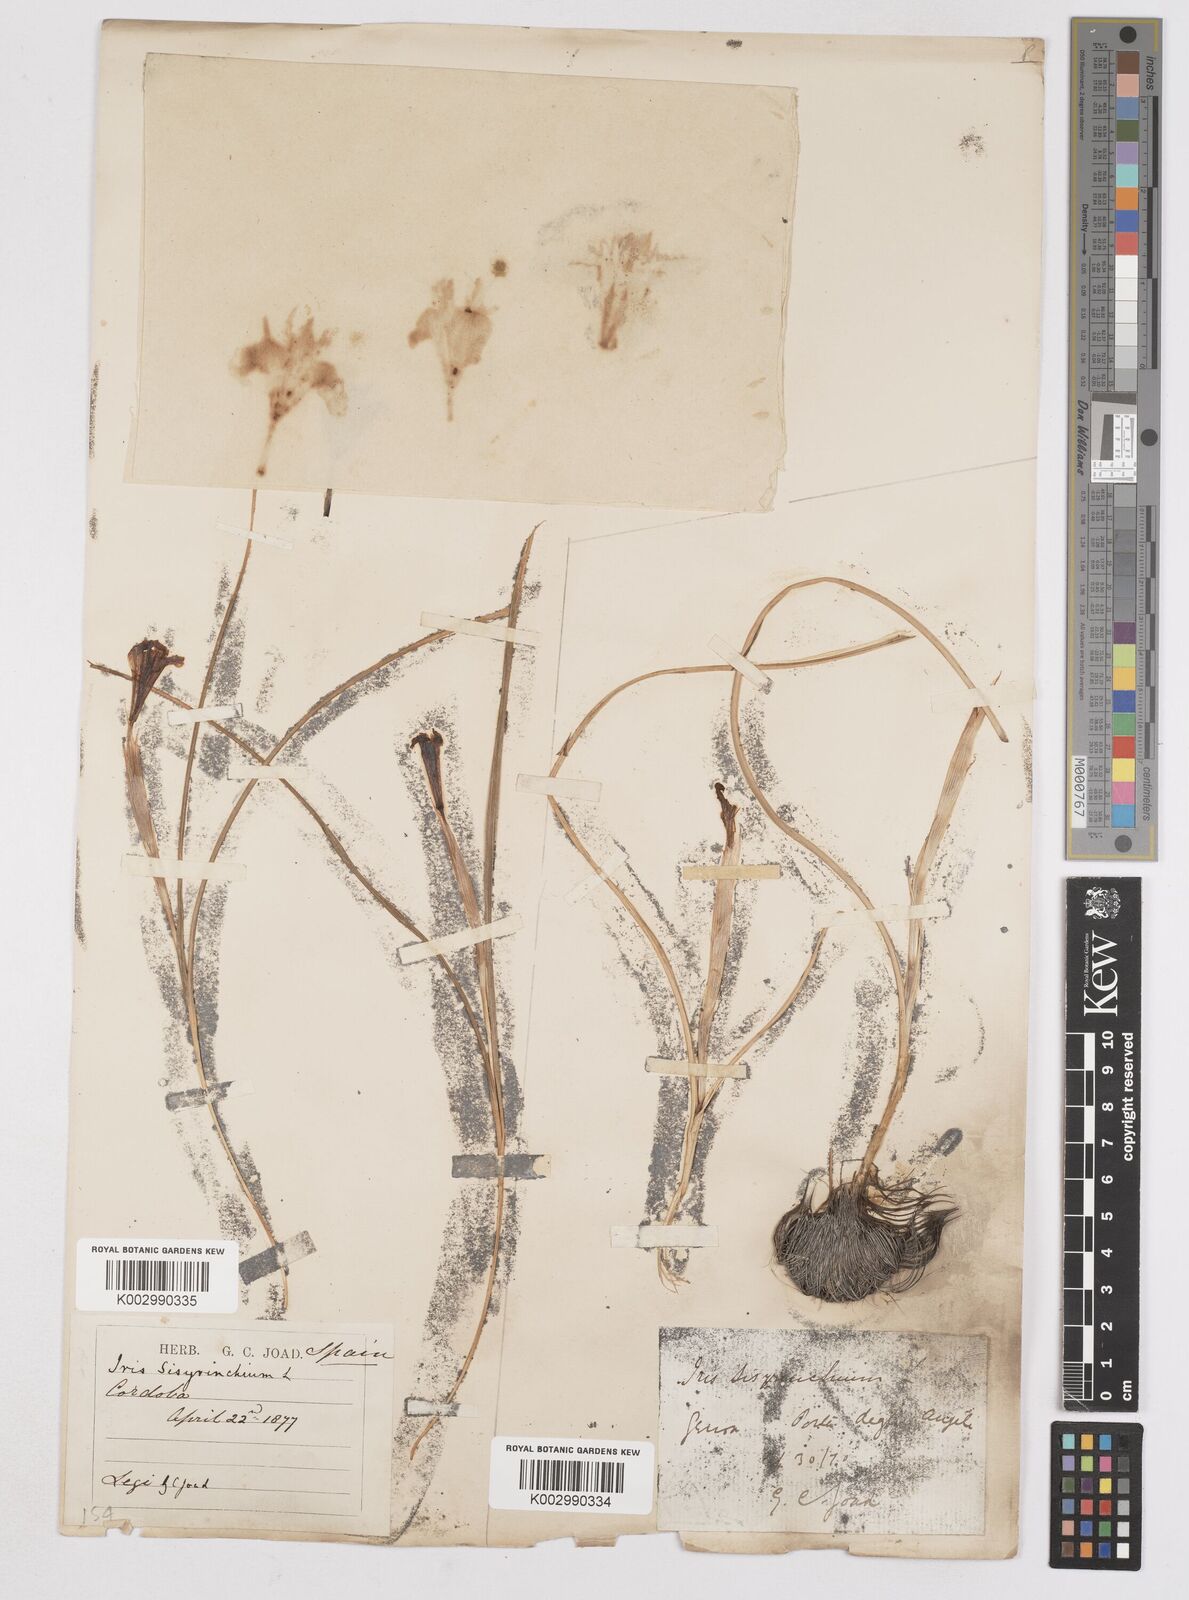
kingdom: Plantae
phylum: Tracheophyta
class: Liliopsida
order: Asparagales
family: Iridaceae
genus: Moraea
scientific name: Moraea sisyrinchium
